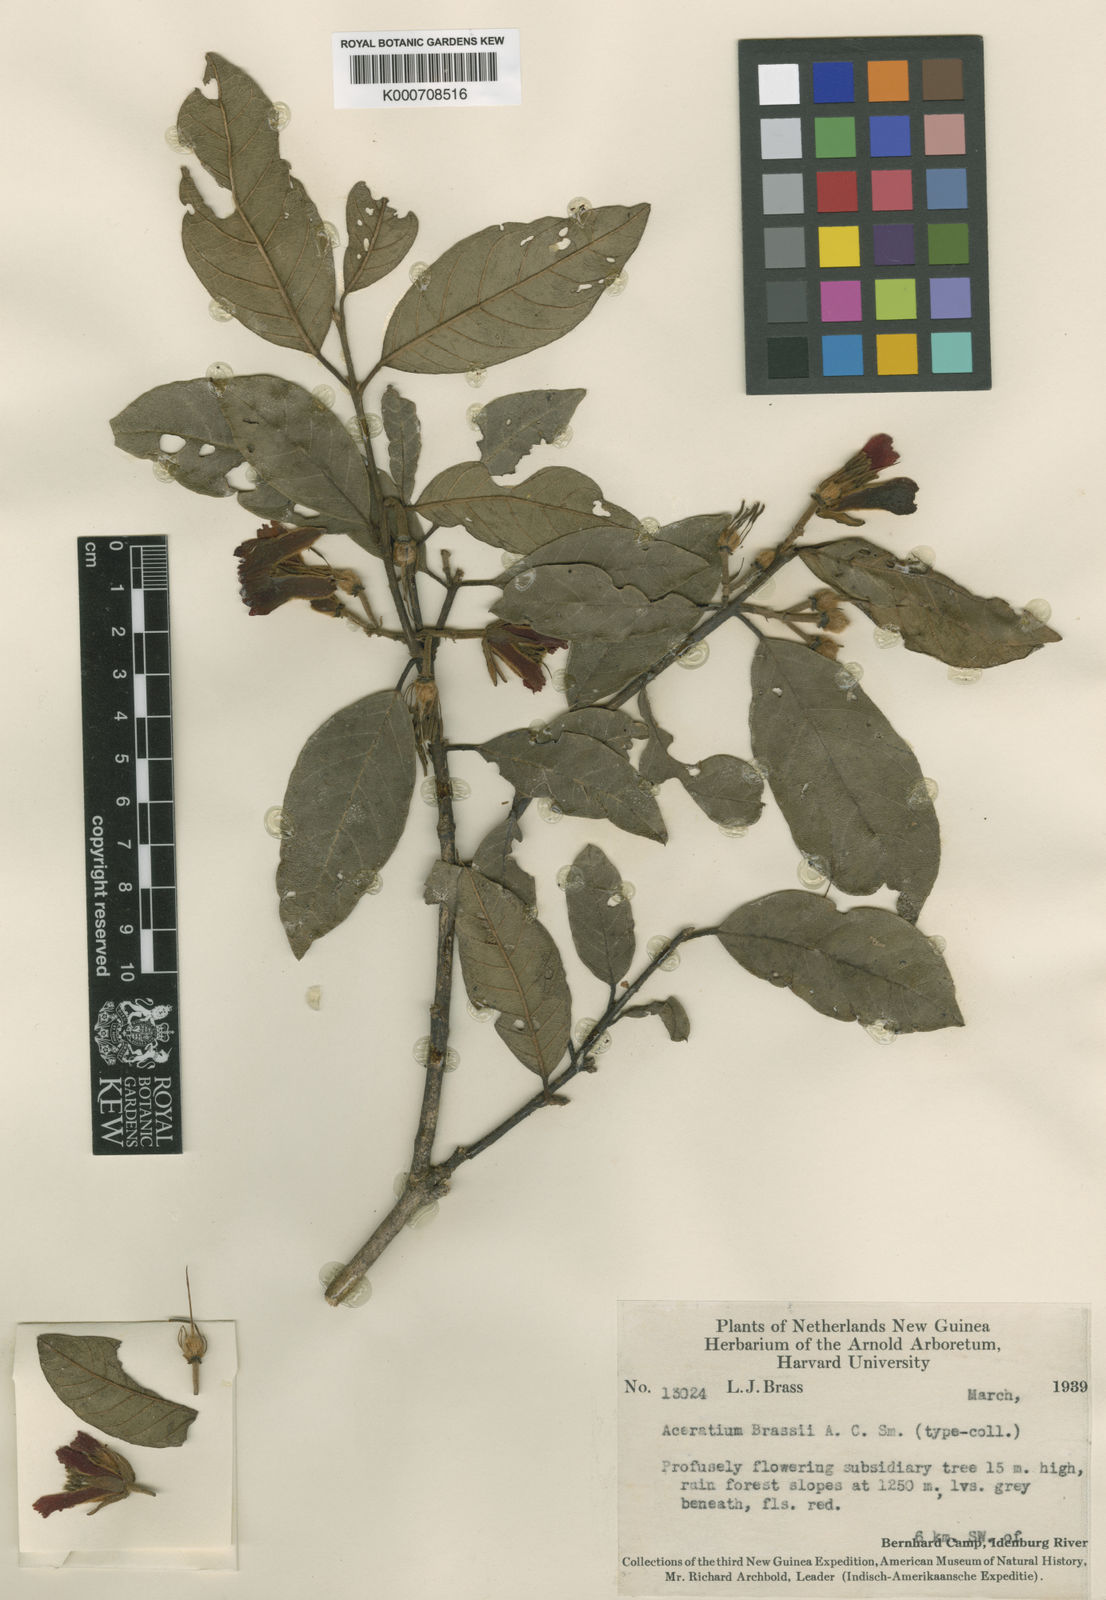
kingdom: Plantae
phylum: Tracheophyta
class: Magnoliopsida
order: Oxalidales
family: Elaeocarpaceae
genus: Aceratium
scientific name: Aceratium brassii
